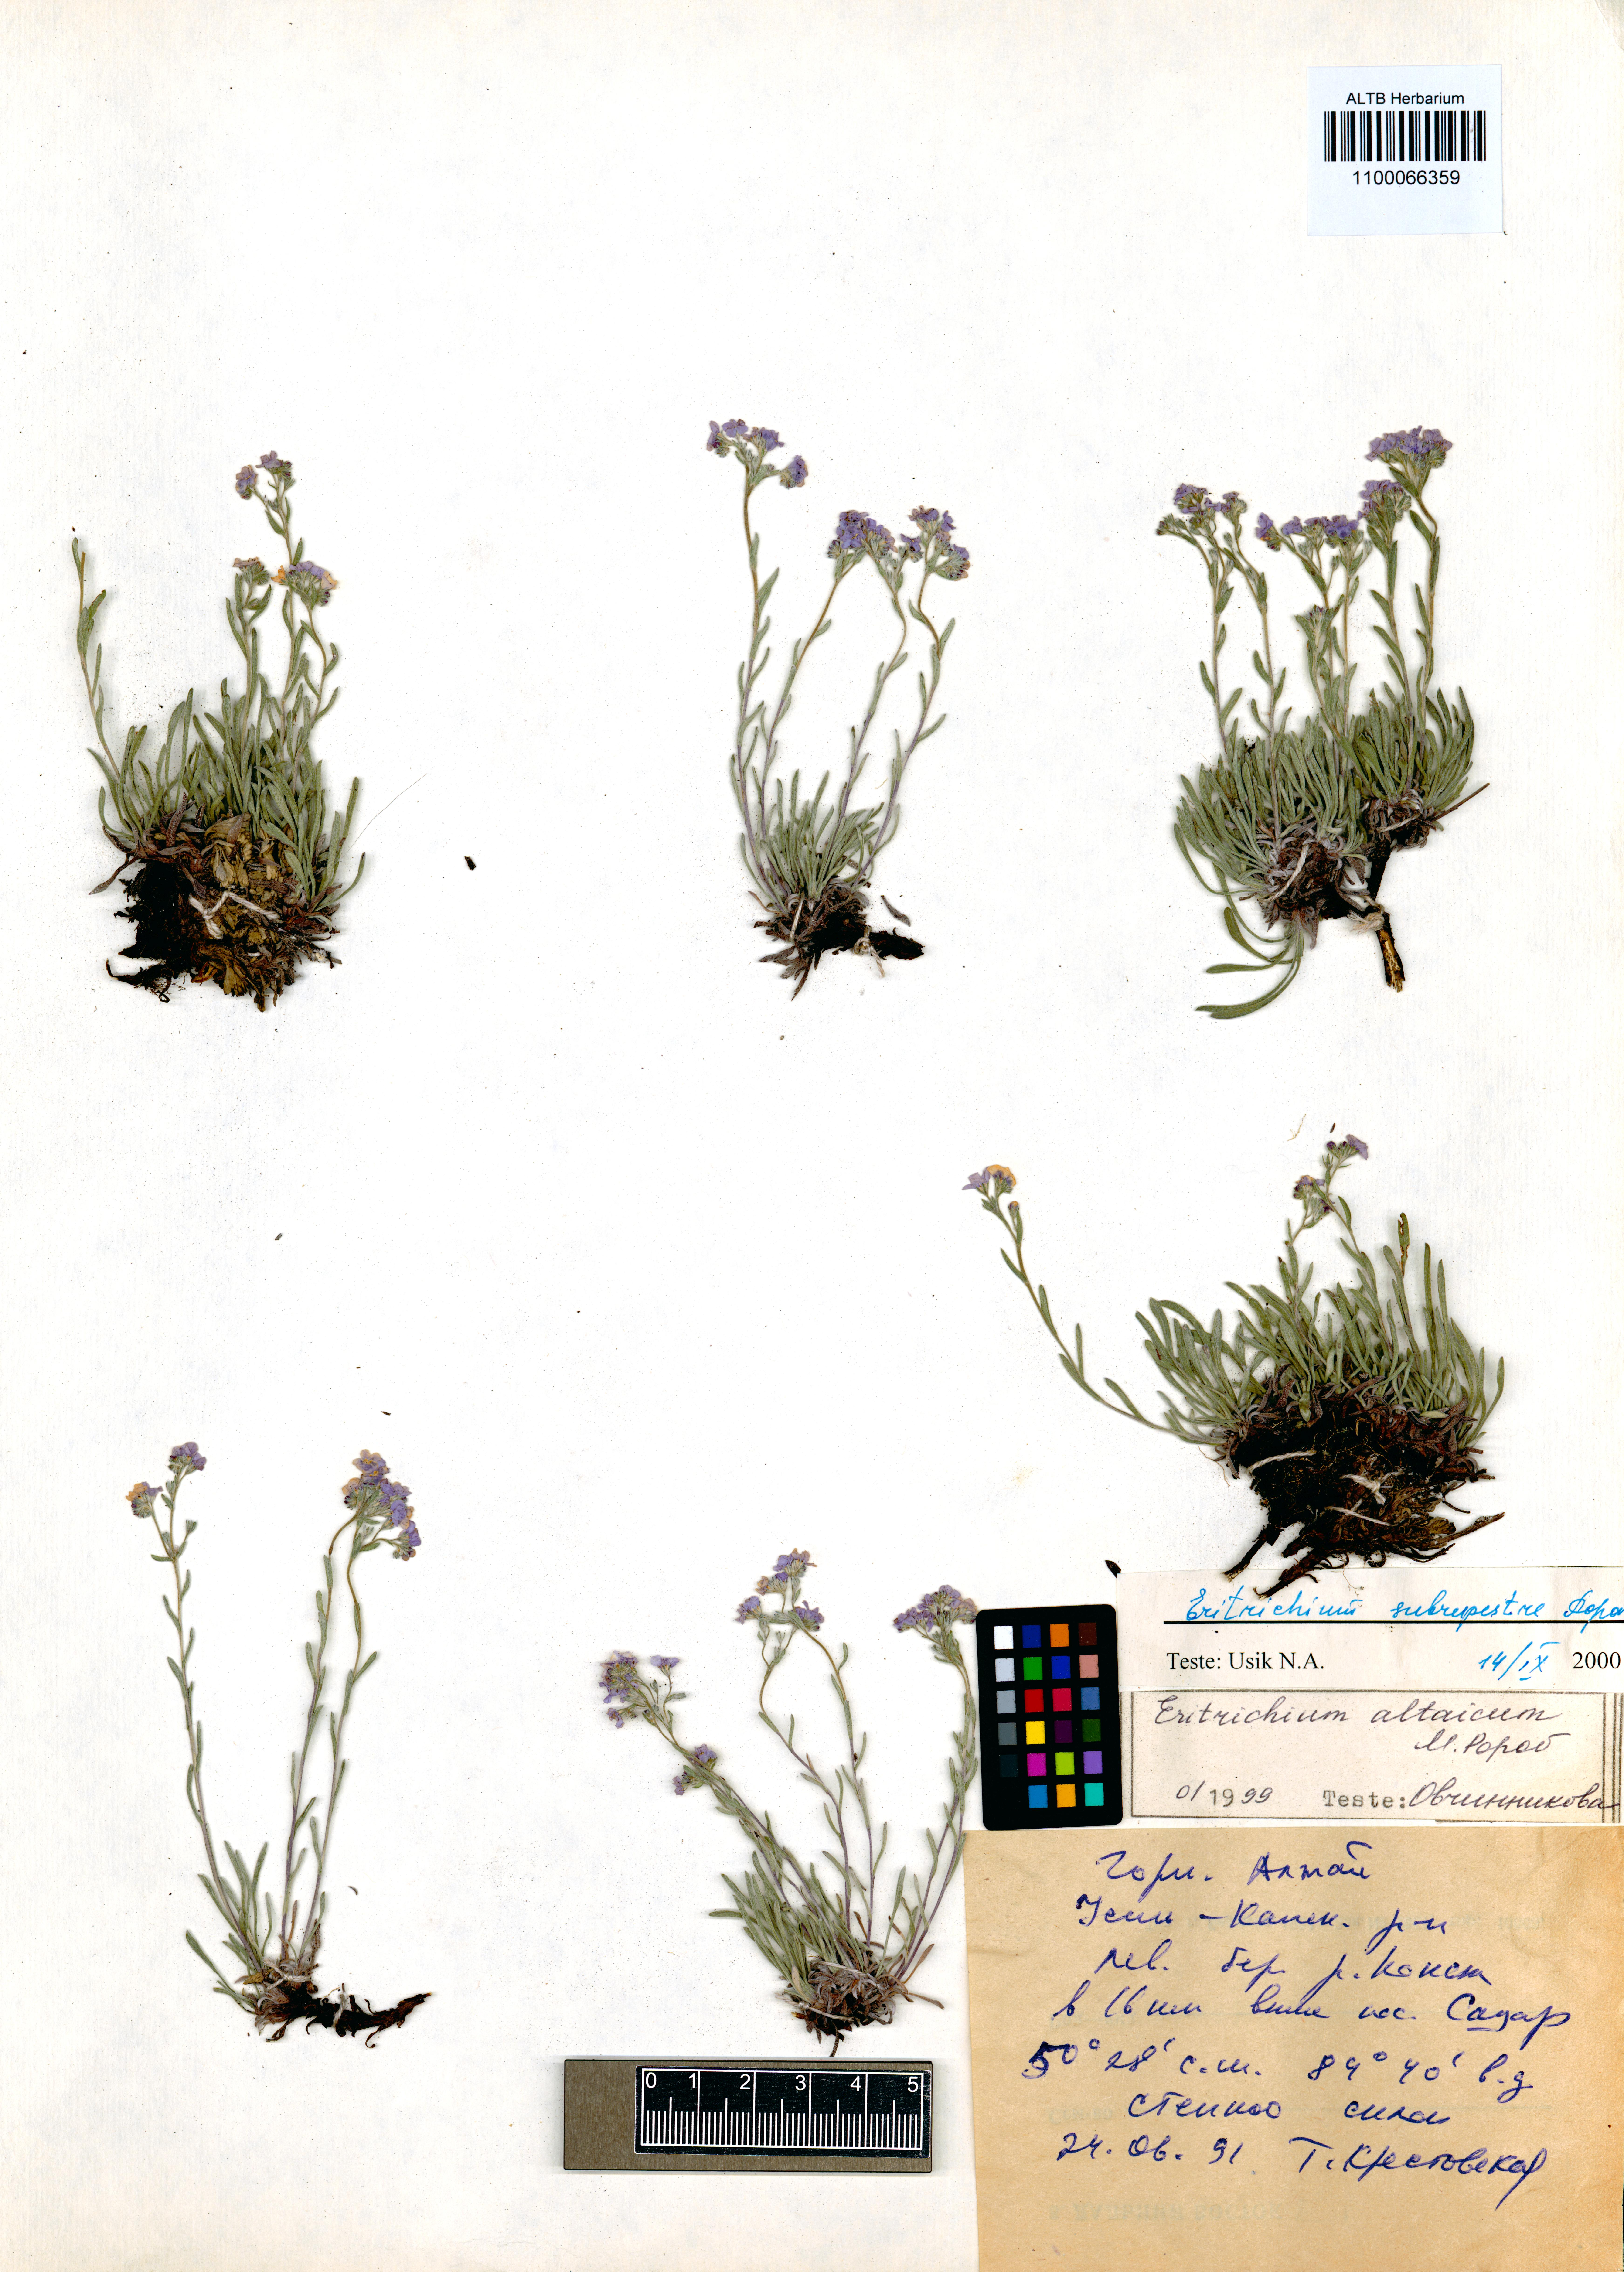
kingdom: Plantae
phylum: Tracheophyta
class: Magnoliopsida
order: Boraginales
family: Boraginaceae
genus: Eritrichium
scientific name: Eritrichium pauciflorum
